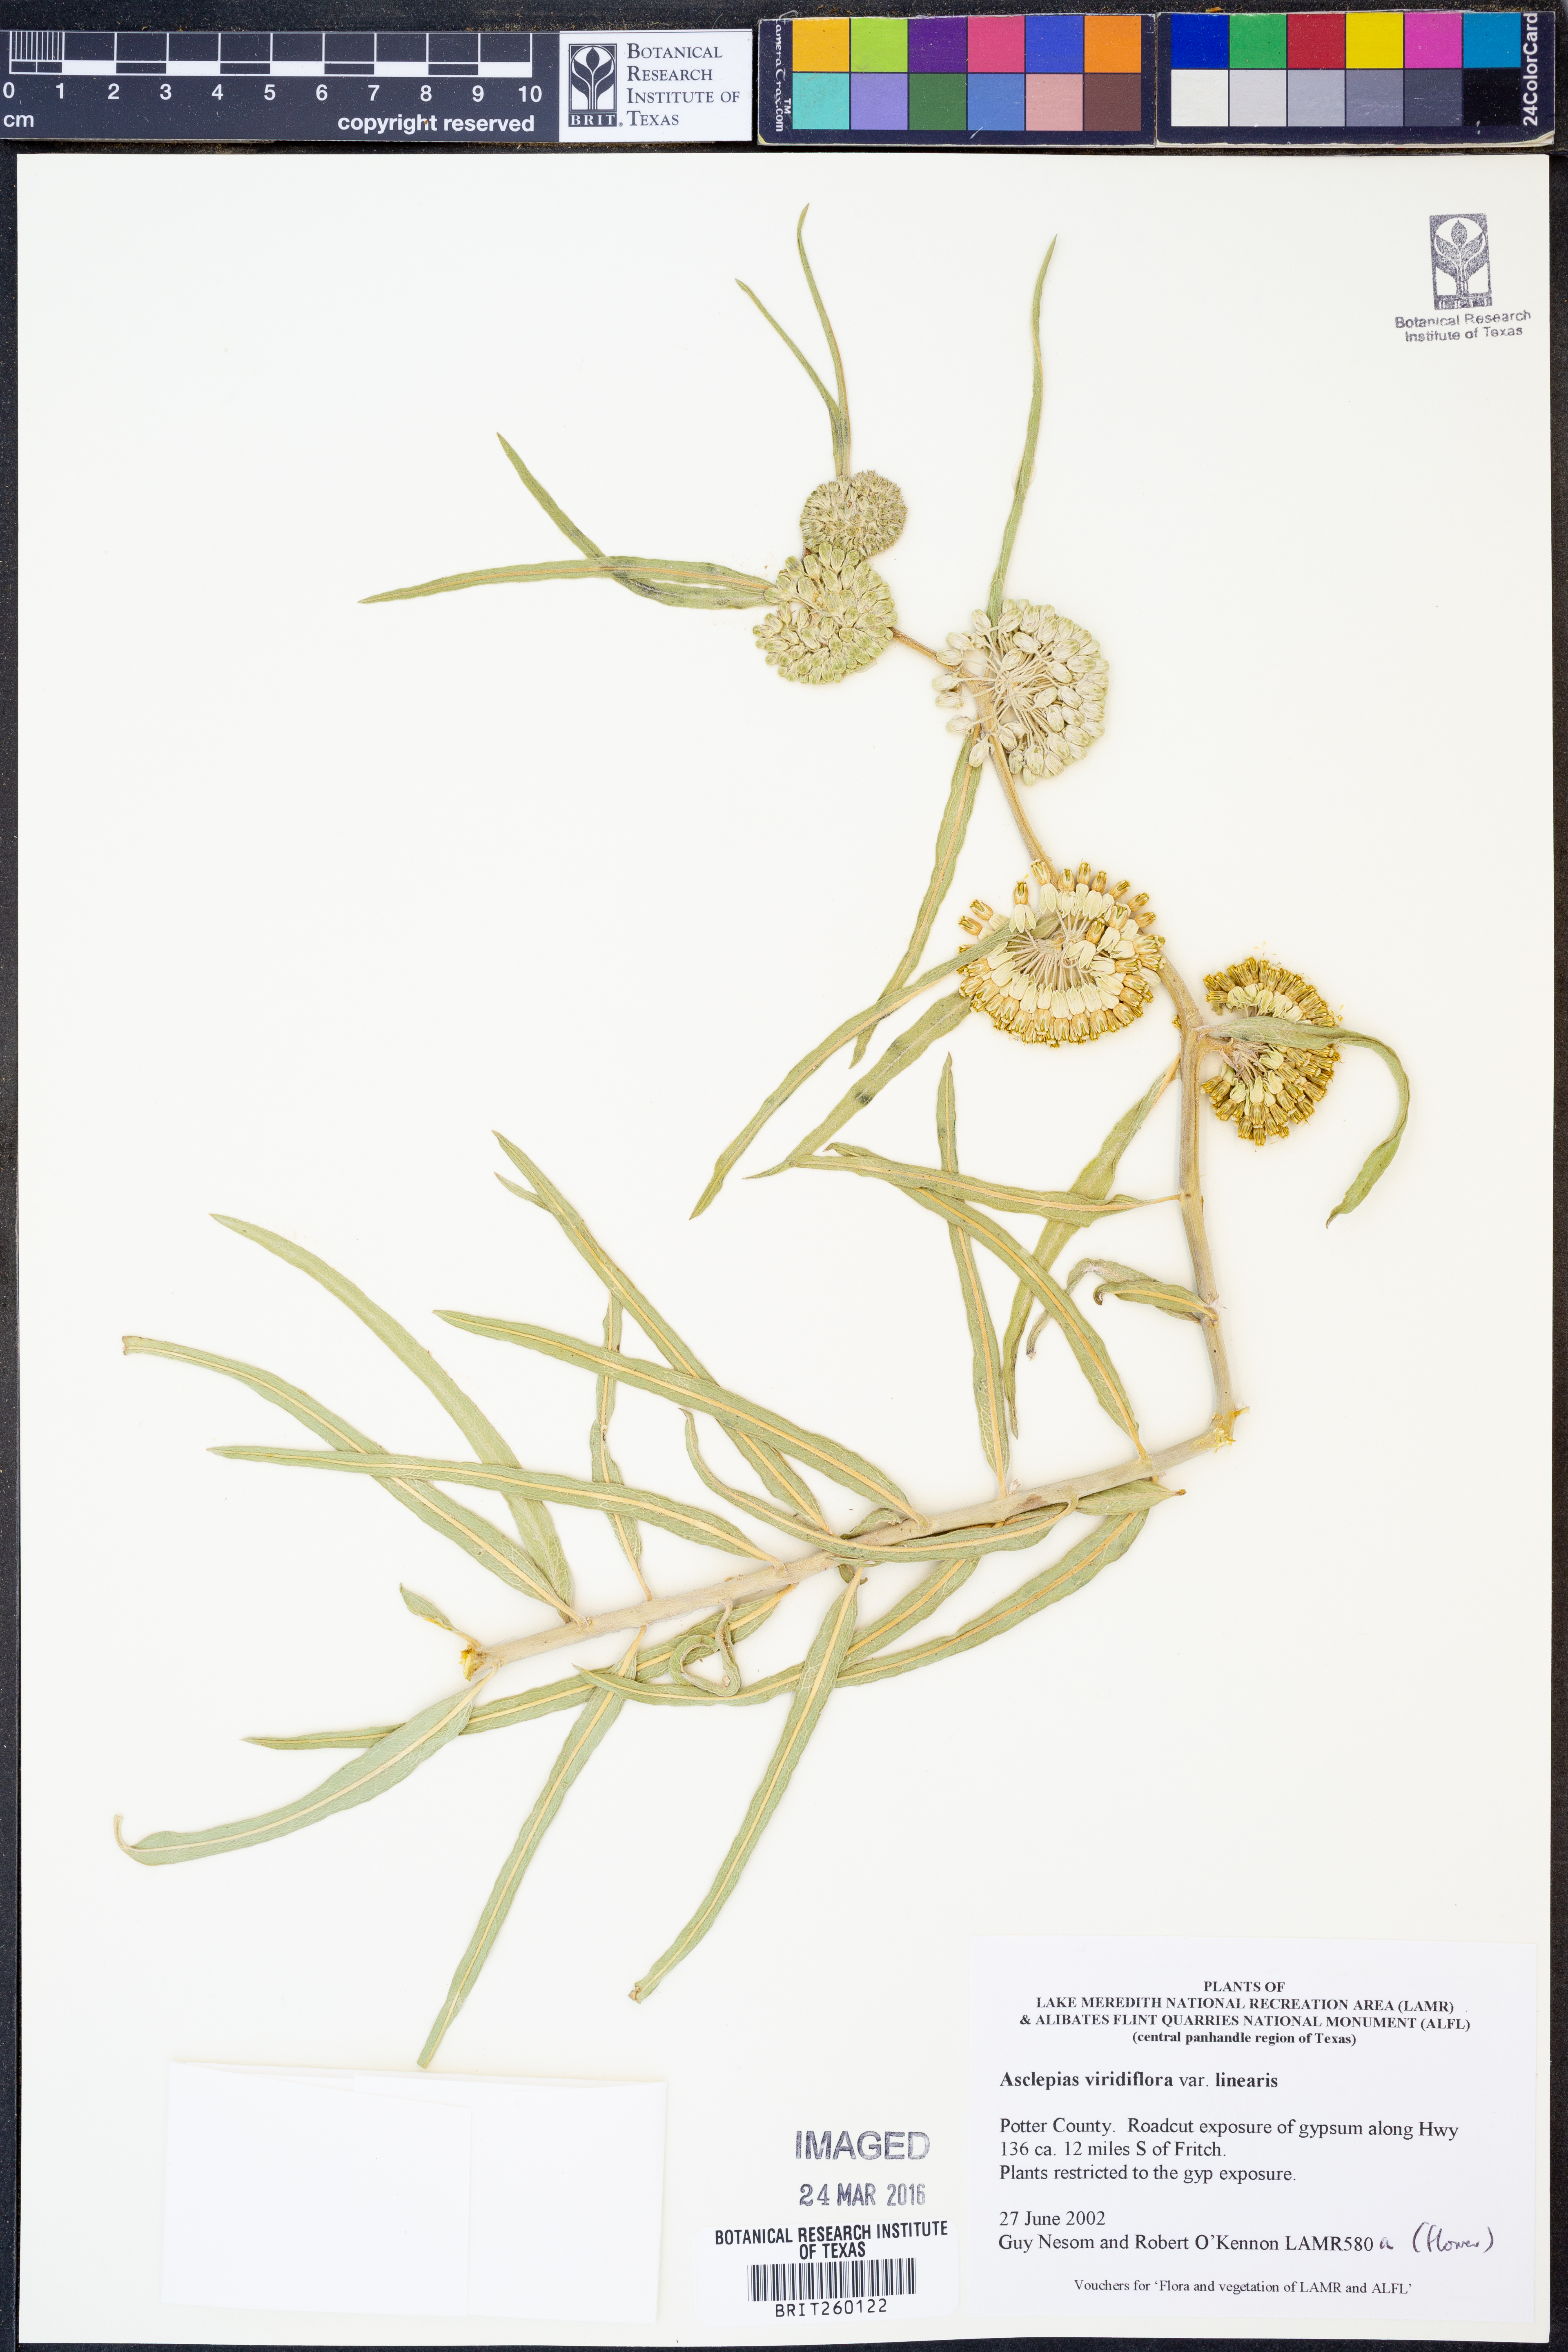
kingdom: Plantae
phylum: Tracheophyta
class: Magnoliopsida
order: Gentianales
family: Apocynaceae
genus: Asclepias
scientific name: Asclepias linearis
